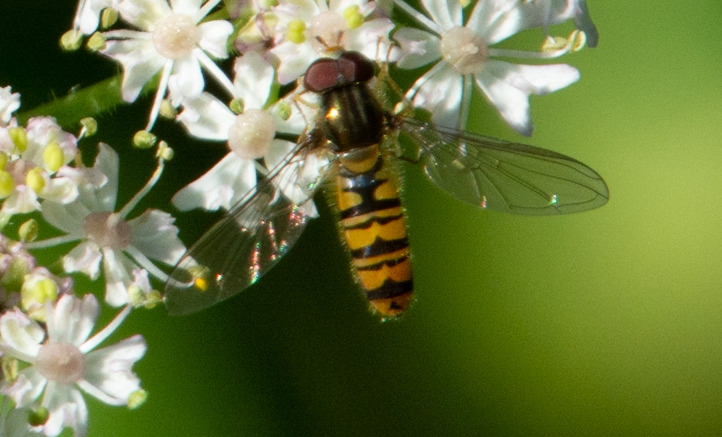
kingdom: Animalia
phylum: Arthropoda
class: Insecta
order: Diptera
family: Syrphidae
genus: Episyrphus
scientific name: Episyrphus balteatus
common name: Dobbeltbåndet svirreflue
